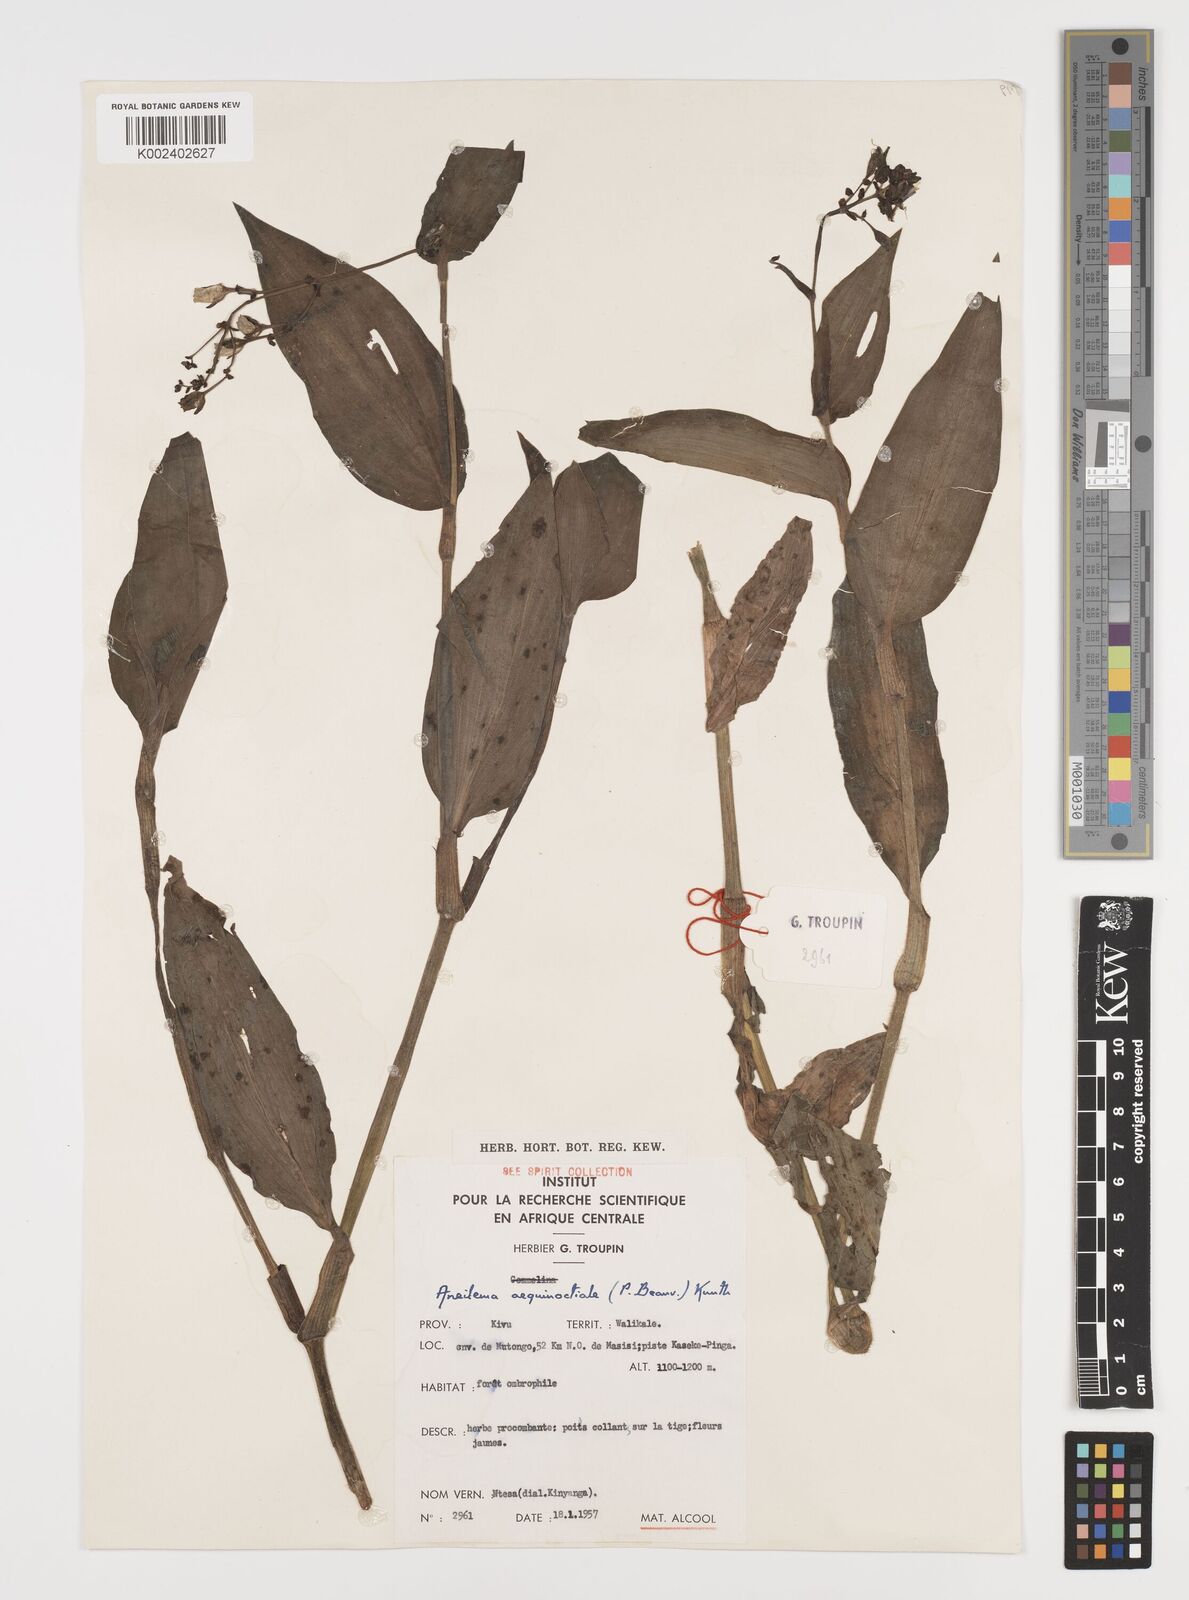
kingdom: Plantae
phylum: Tracheophyta
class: Liliopsida
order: Commelinales
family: Commelinaceae
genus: Aneilema
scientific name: Aneilema aequinoctiale
